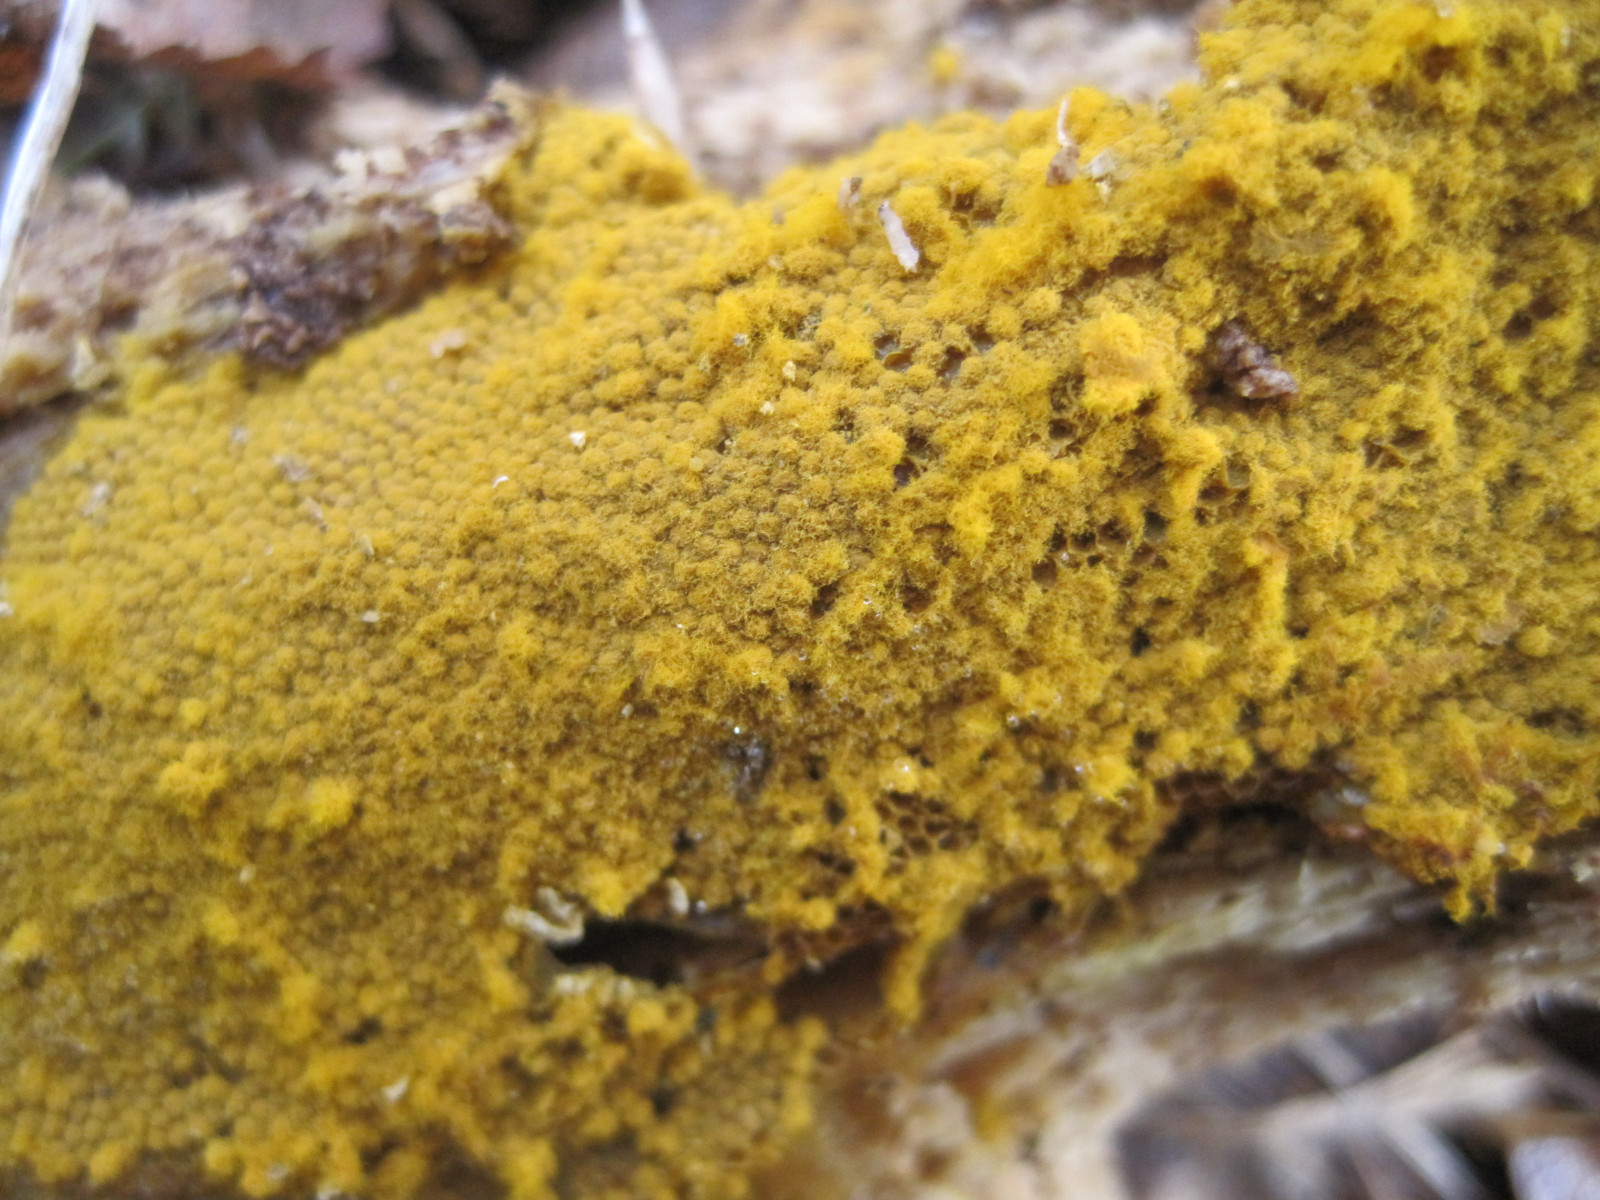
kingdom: Protozoa
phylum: Mycetozoa
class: Myxomycetes
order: Trichiales
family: Trichiaceae
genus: Trichia
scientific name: Trichia
